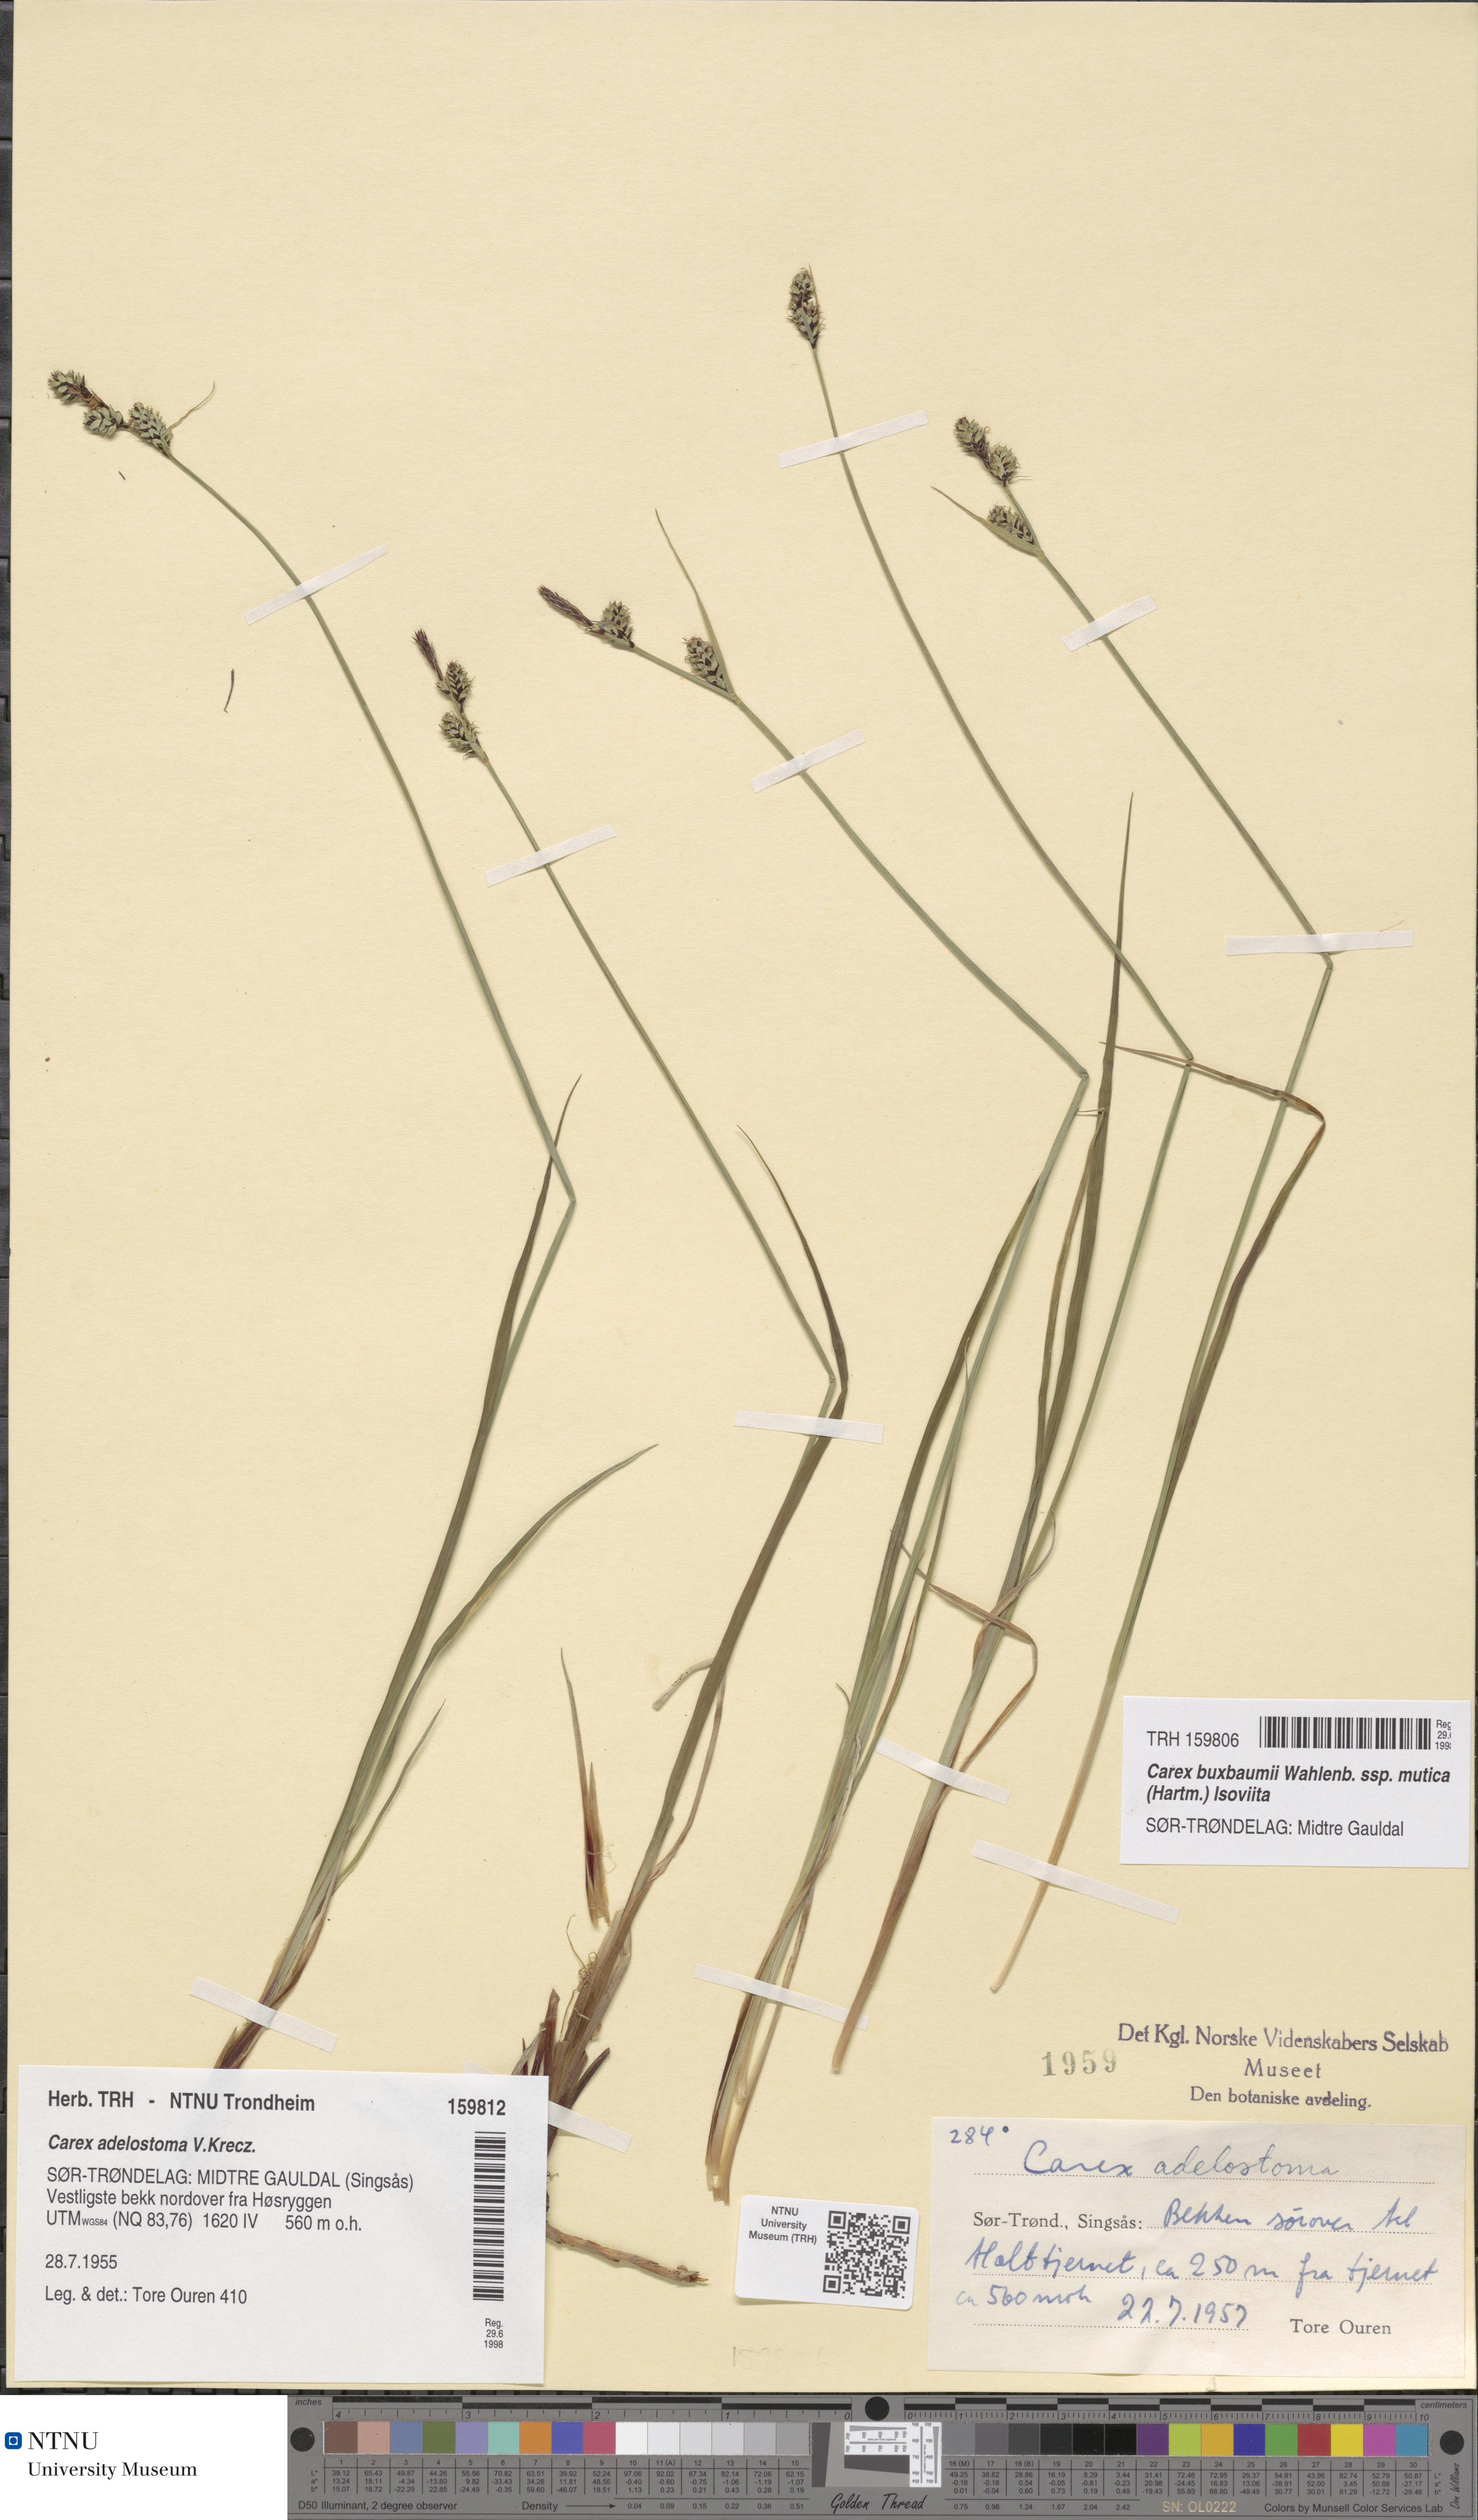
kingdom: Plantae
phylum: Tracheophyta
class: Liliopsida
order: Poales
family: Cyperaceae
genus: Carex
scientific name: Carex adelostoma
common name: Circumpolar sedge
